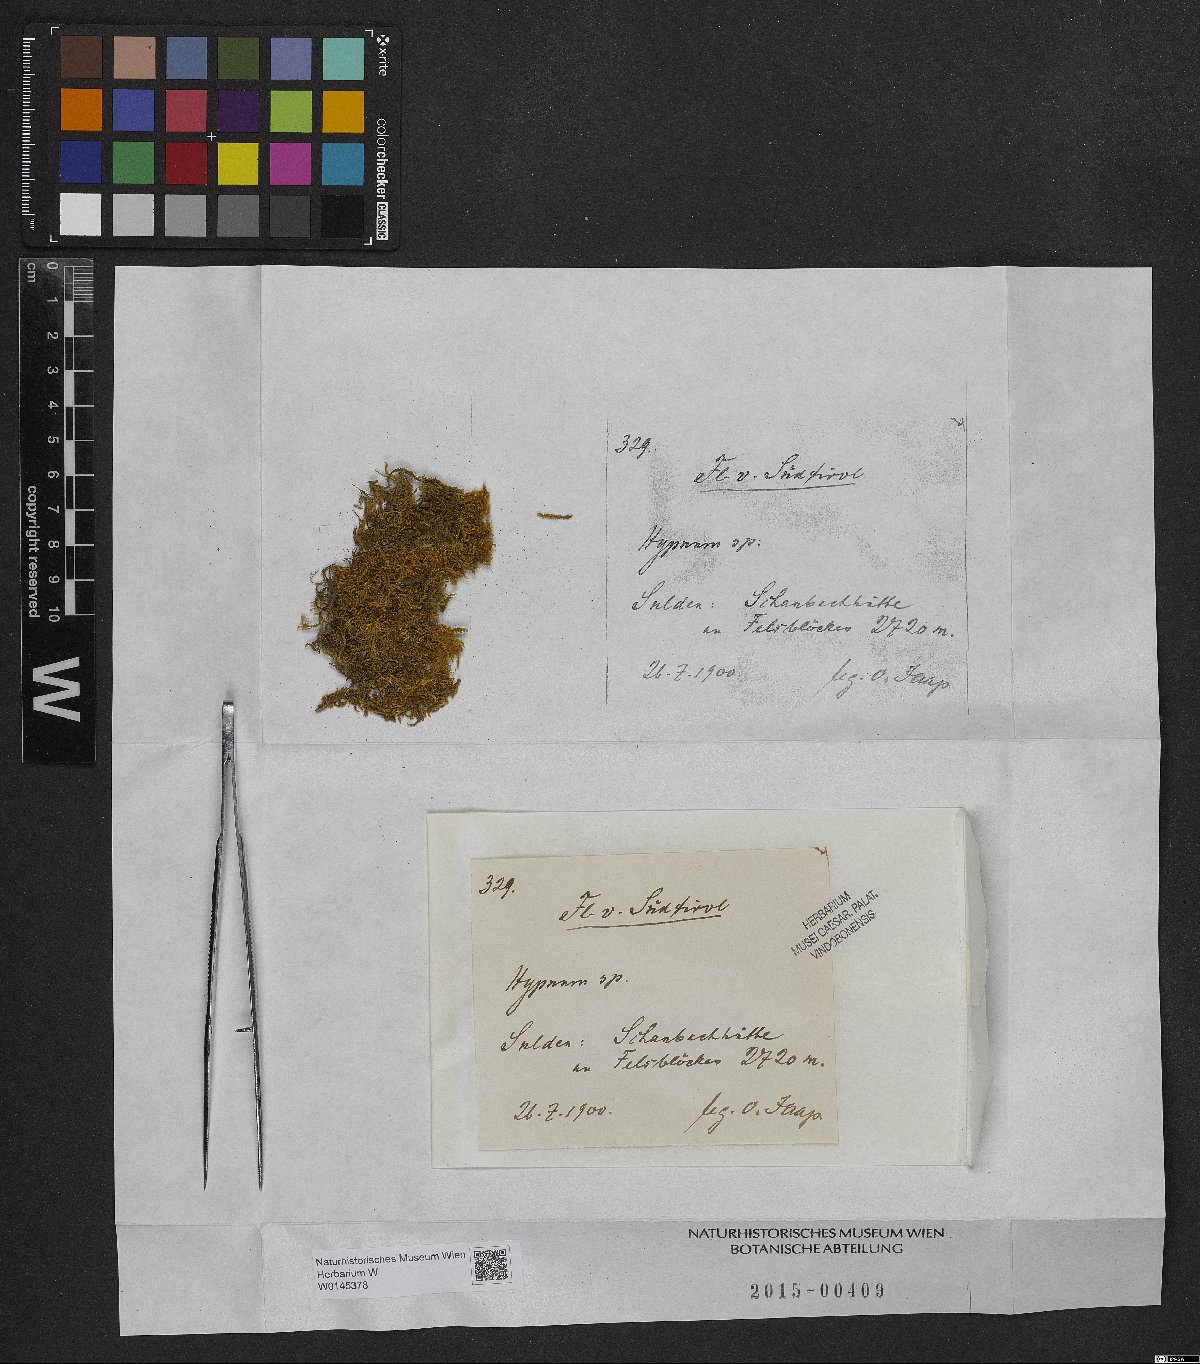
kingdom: Plantae
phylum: Bryophyta
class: Bryopsida
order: Hypnales
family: Hypnaceae
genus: Hypnum
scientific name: Hypnum
